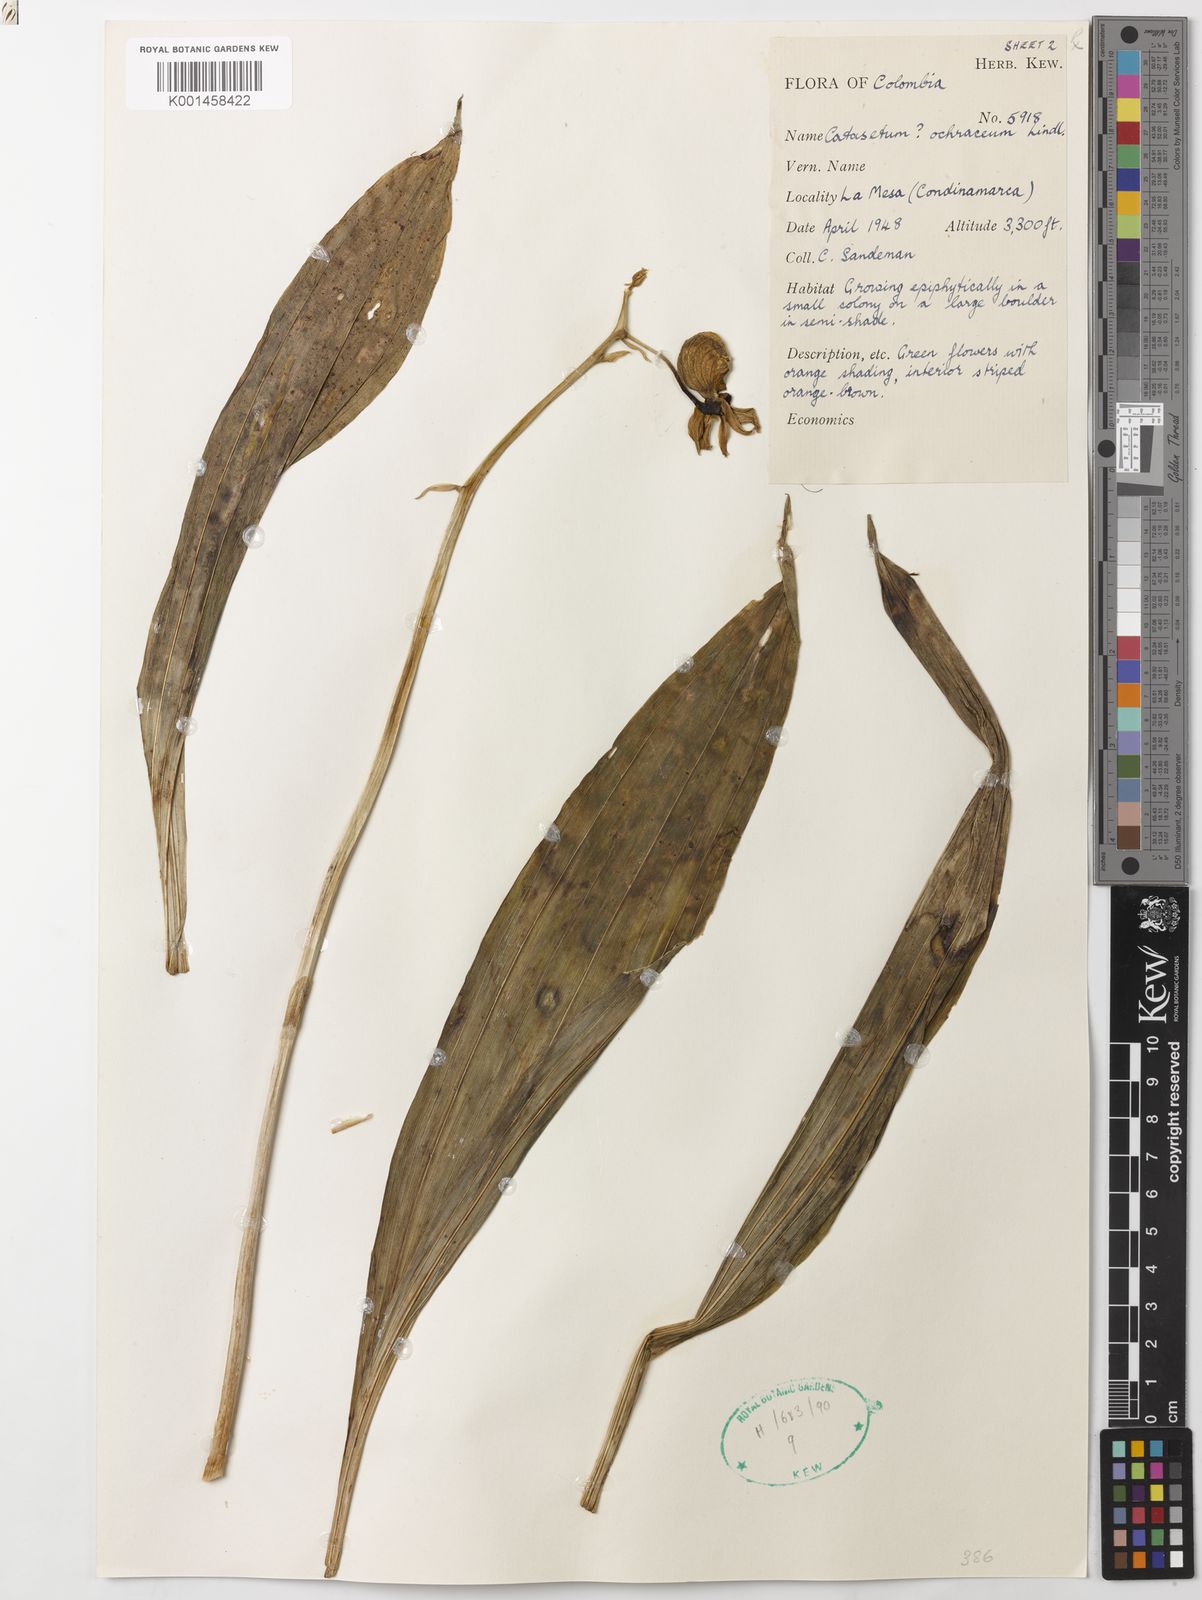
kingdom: Plantae
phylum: Tracheophyta
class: Liliopsida
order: Asparagales
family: Orchidaceae
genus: Catasetum
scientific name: Catasetum ochraceum
